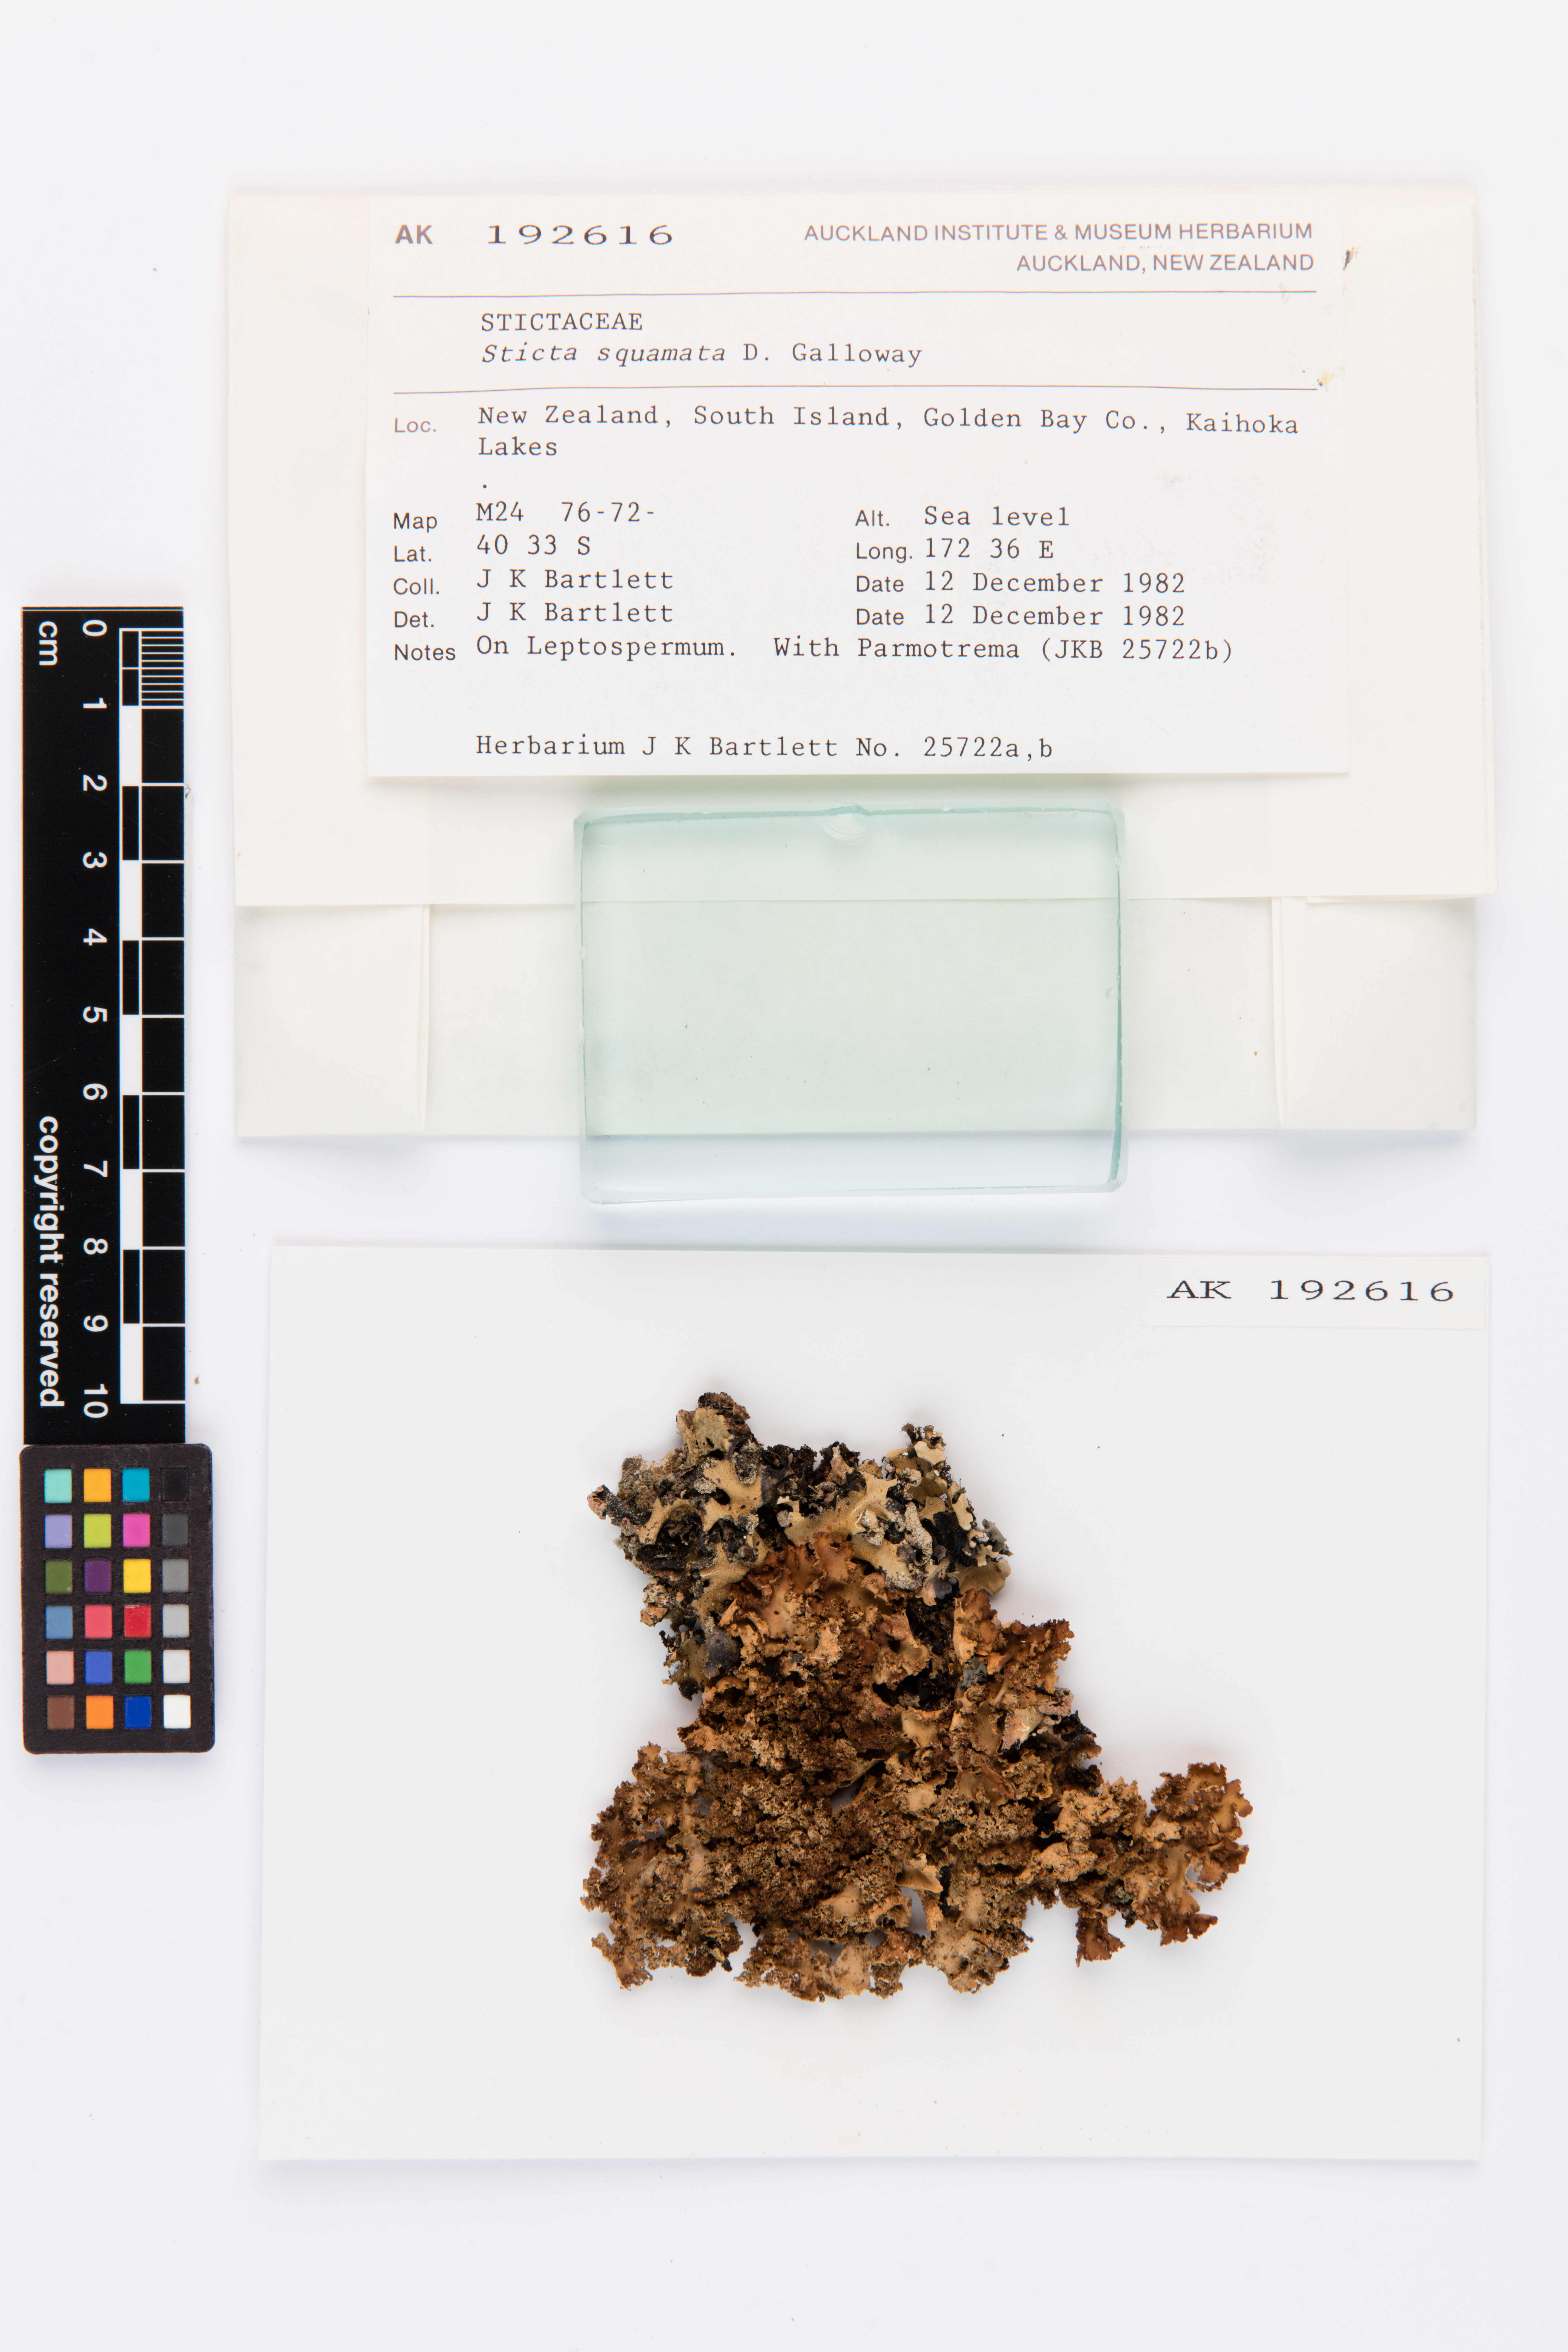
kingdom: Fungi
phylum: Ascomycota
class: Lecanoromycetes
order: Peltigerales
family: Lobariaceae
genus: Sticta
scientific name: Sticta squamata
